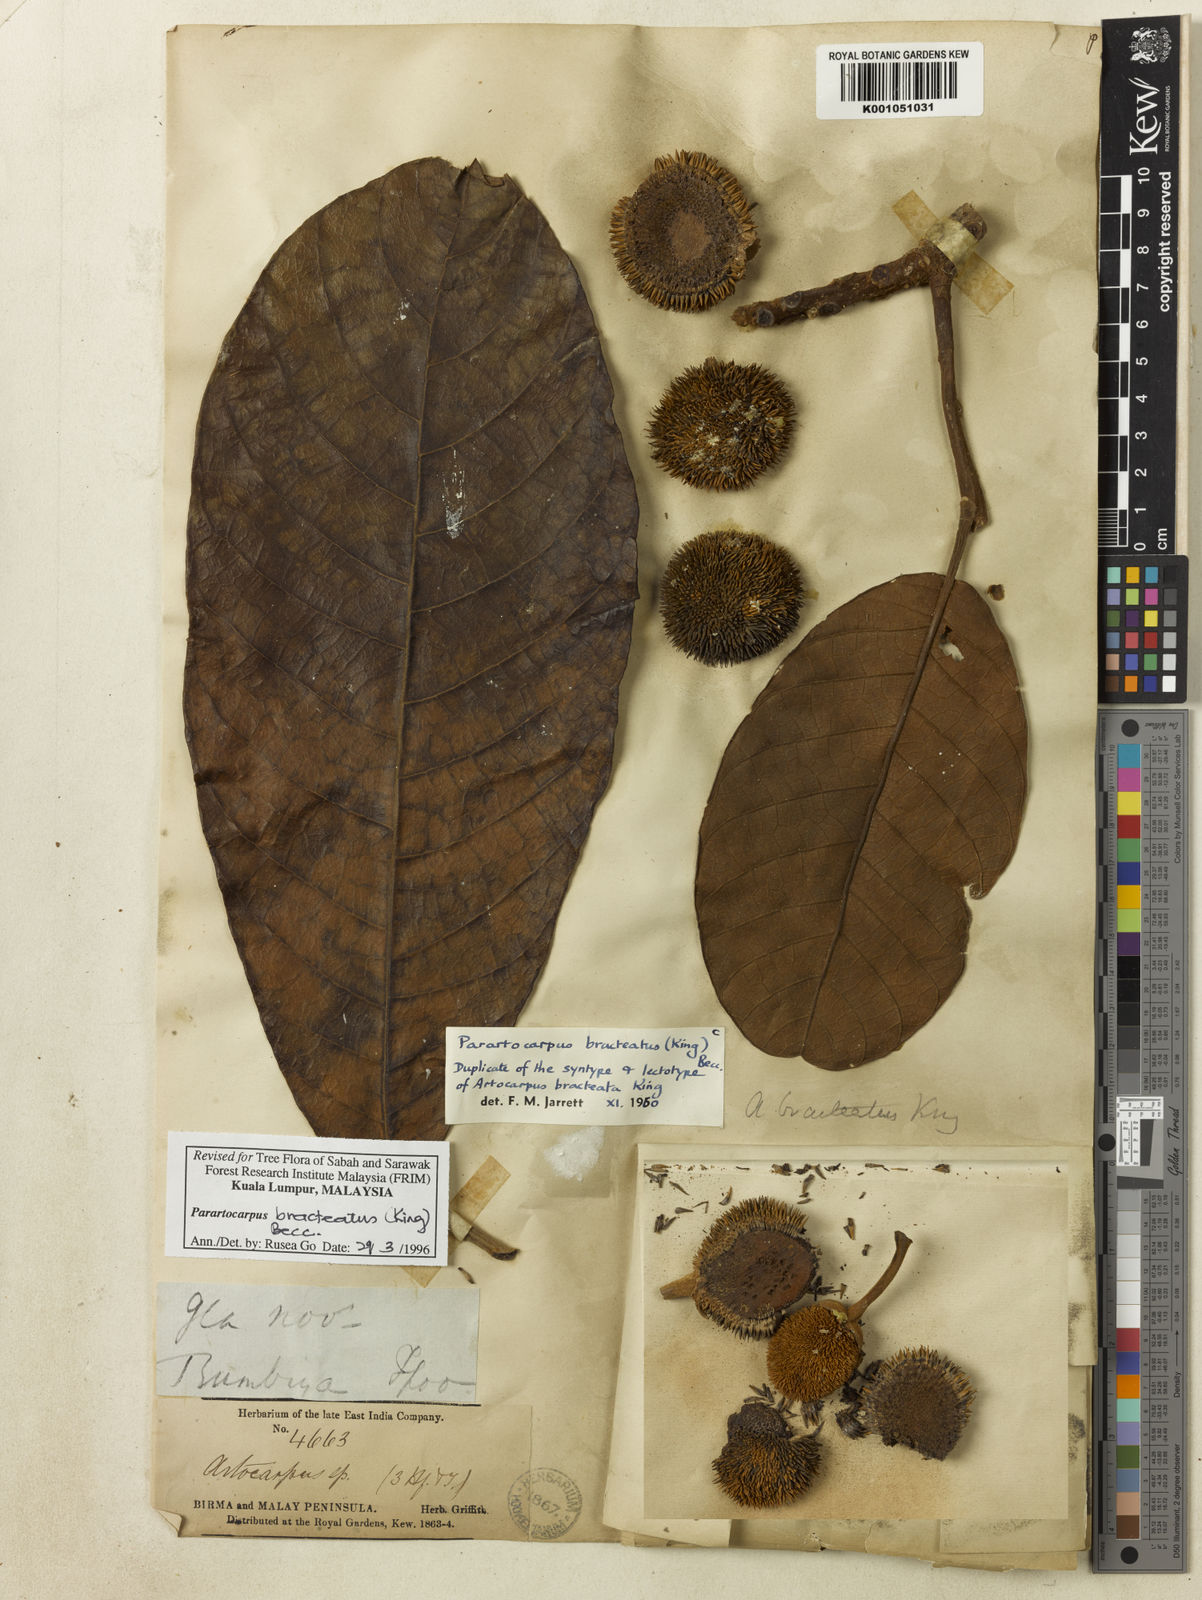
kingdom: Plantae
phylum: Tracheophyta
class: Magnoliopsida
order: Rosales
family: Moraceae
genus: Parartocarpus
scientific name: Parartocarpus bracteatus
